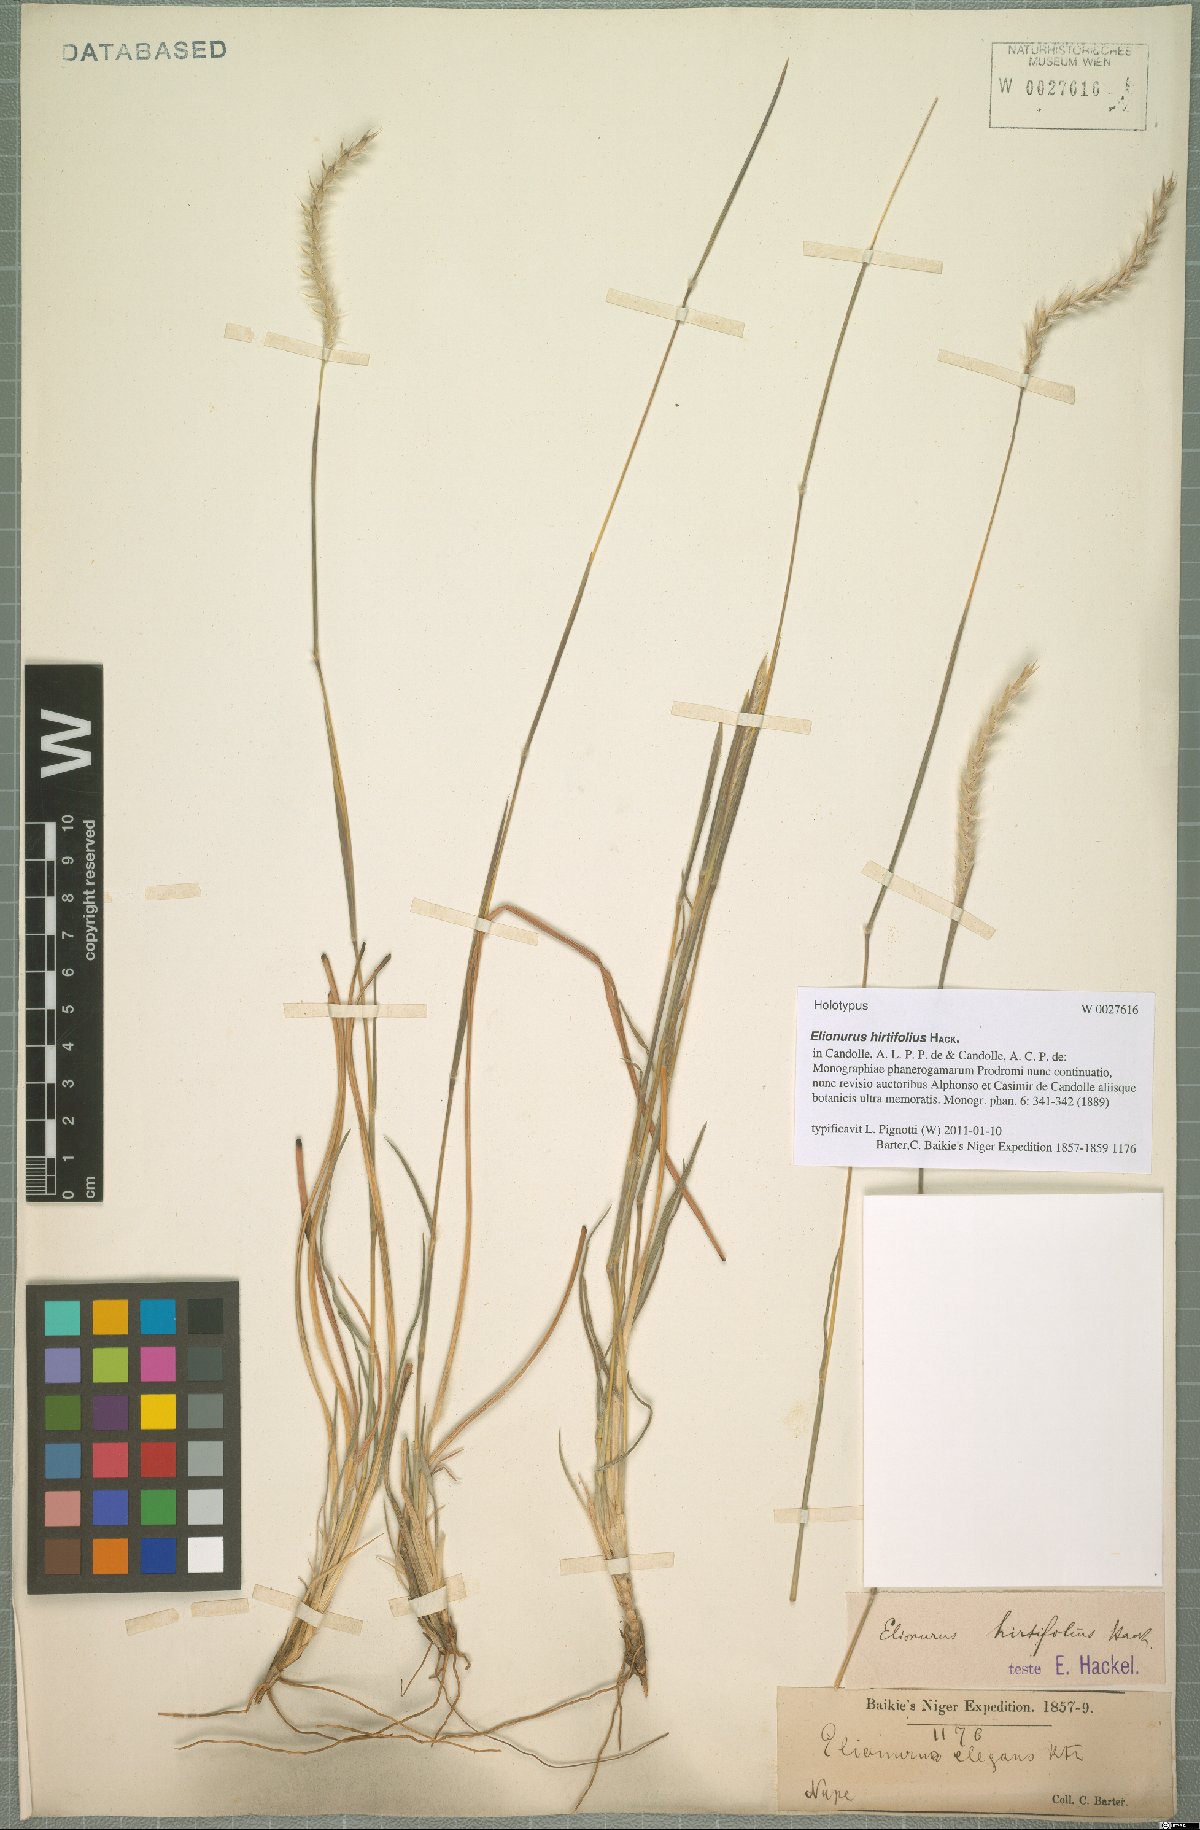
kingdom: Plantae
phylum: Tracheophyta
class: Liliopsida
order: Poales
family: Poaceae
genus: Elionurus
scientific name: Elionurus hirtifolius
